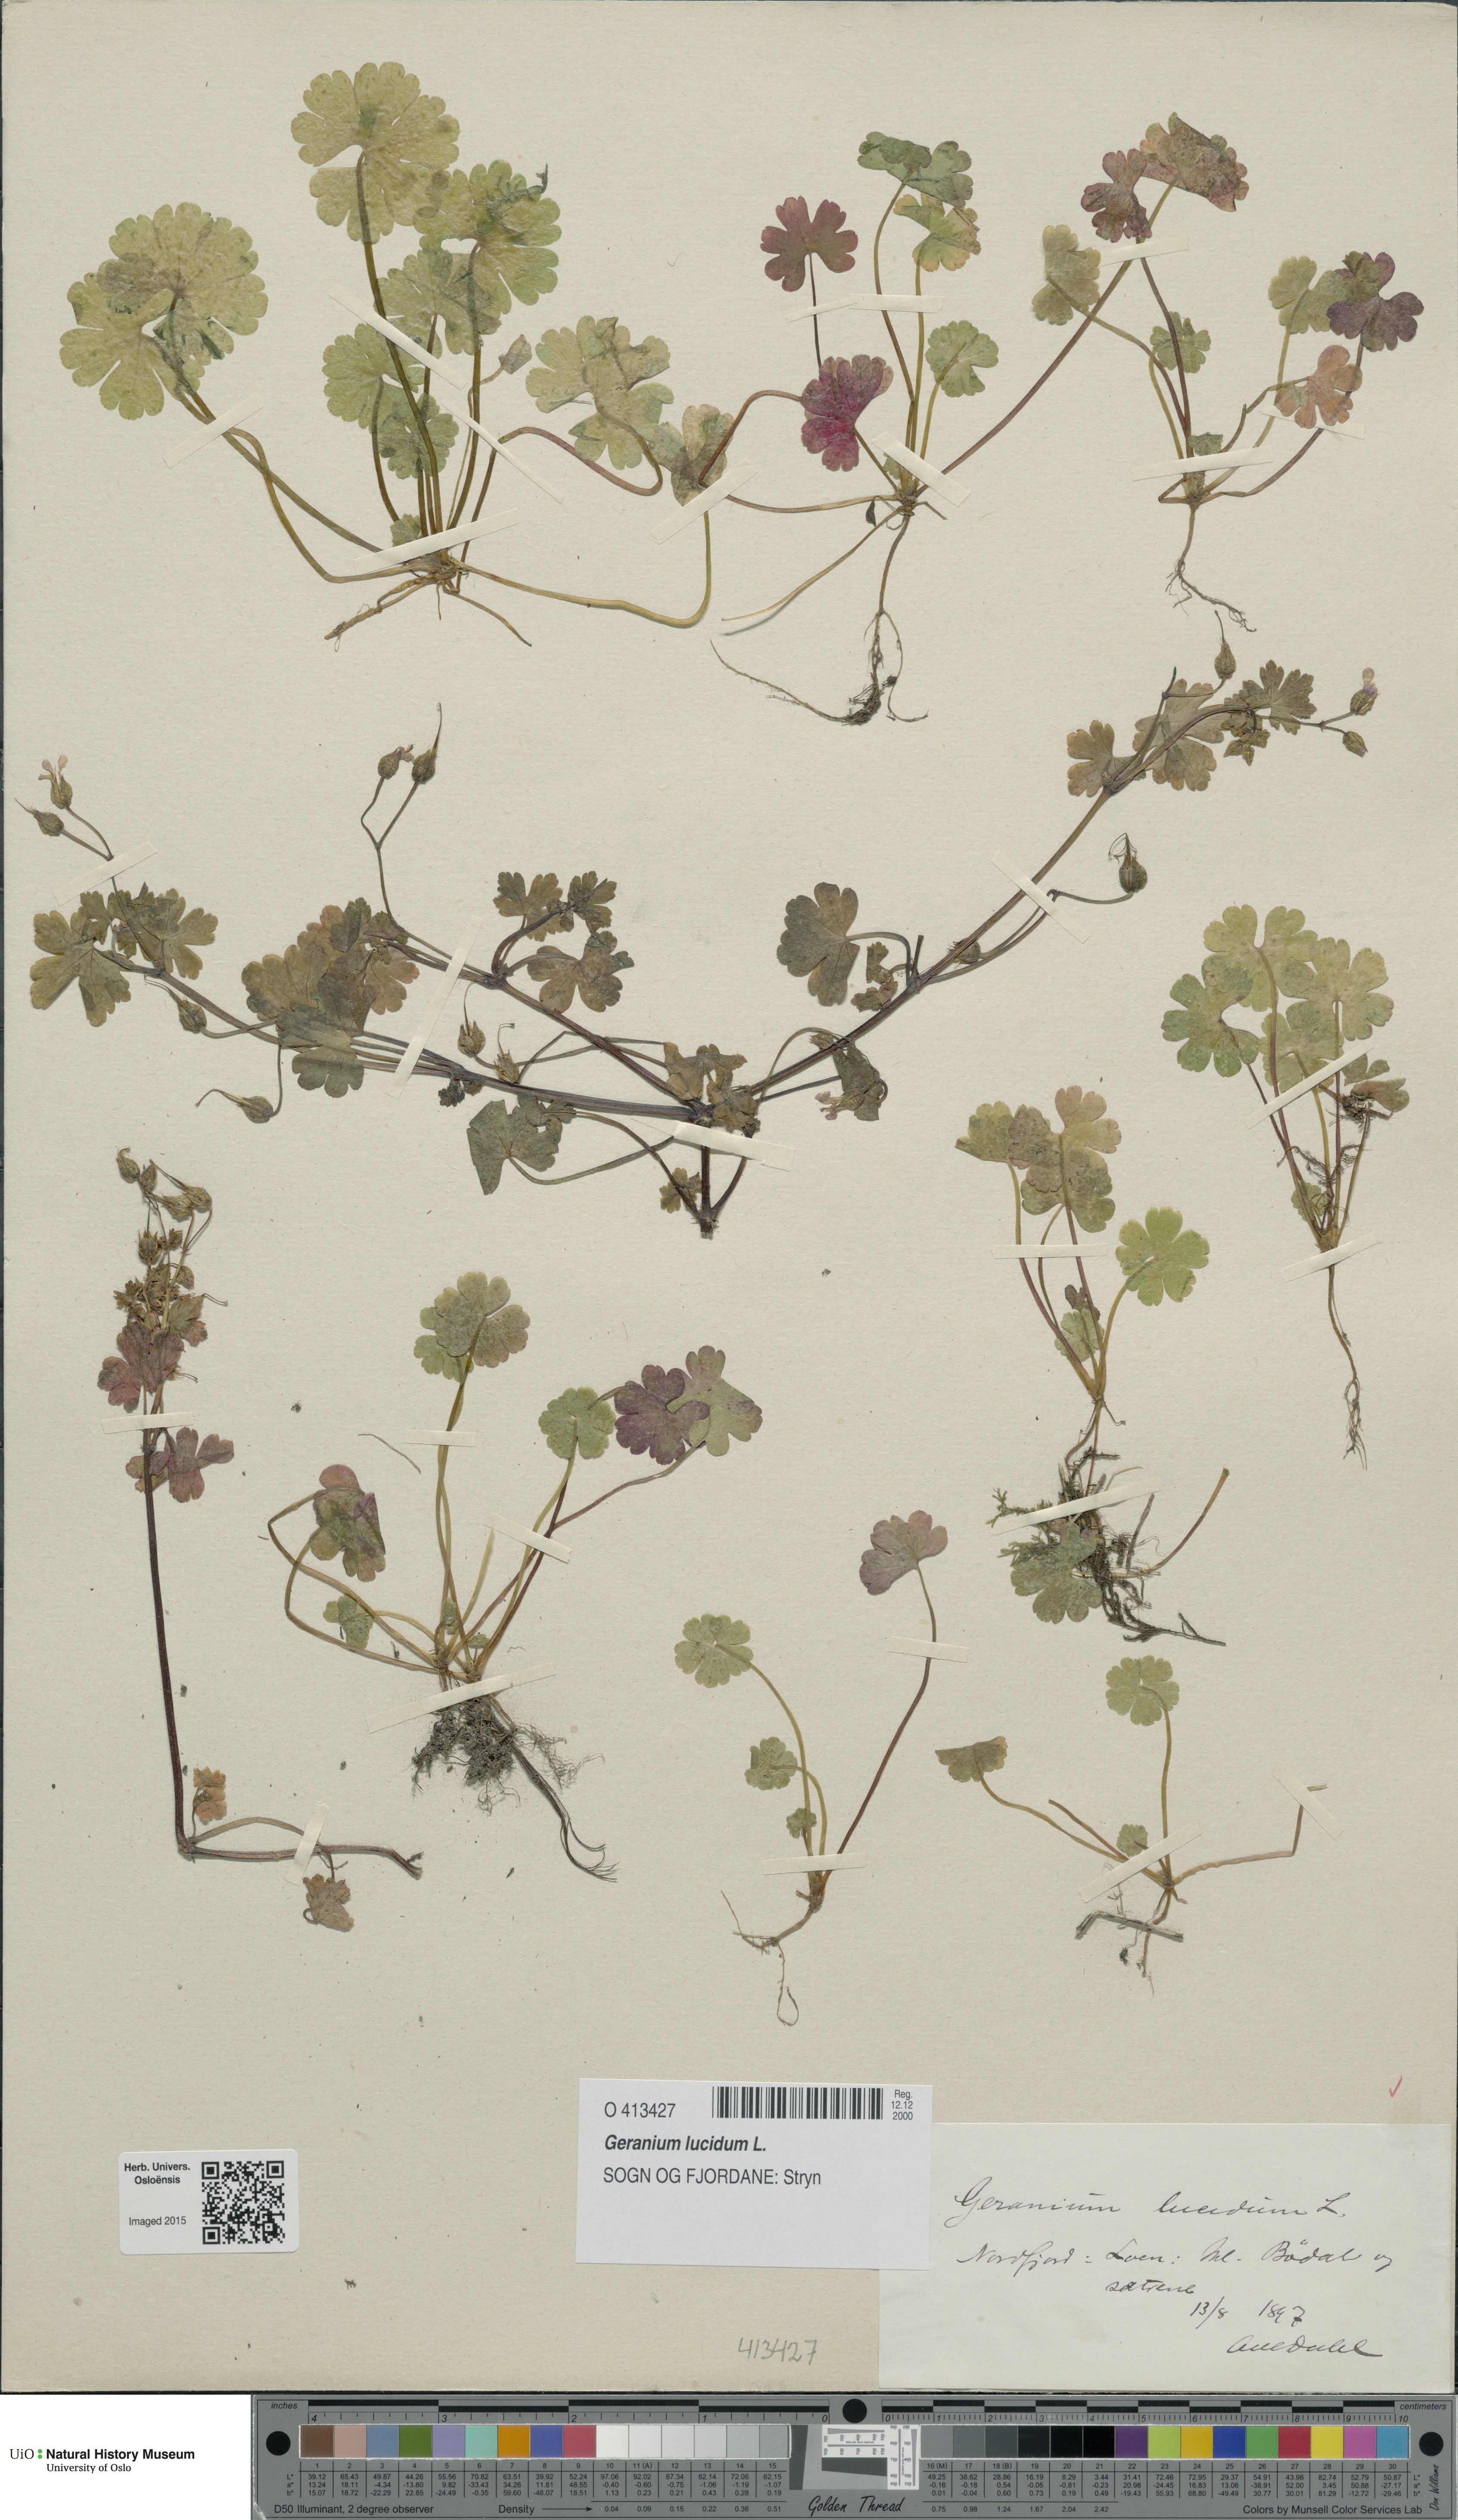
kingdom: Plantae
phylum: Tracheophyta
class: Magnoliopsida
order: Geraniales
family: Geraniaceae
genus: Geranium
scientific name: Geranium lucidum
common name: Shining crane's-bill
